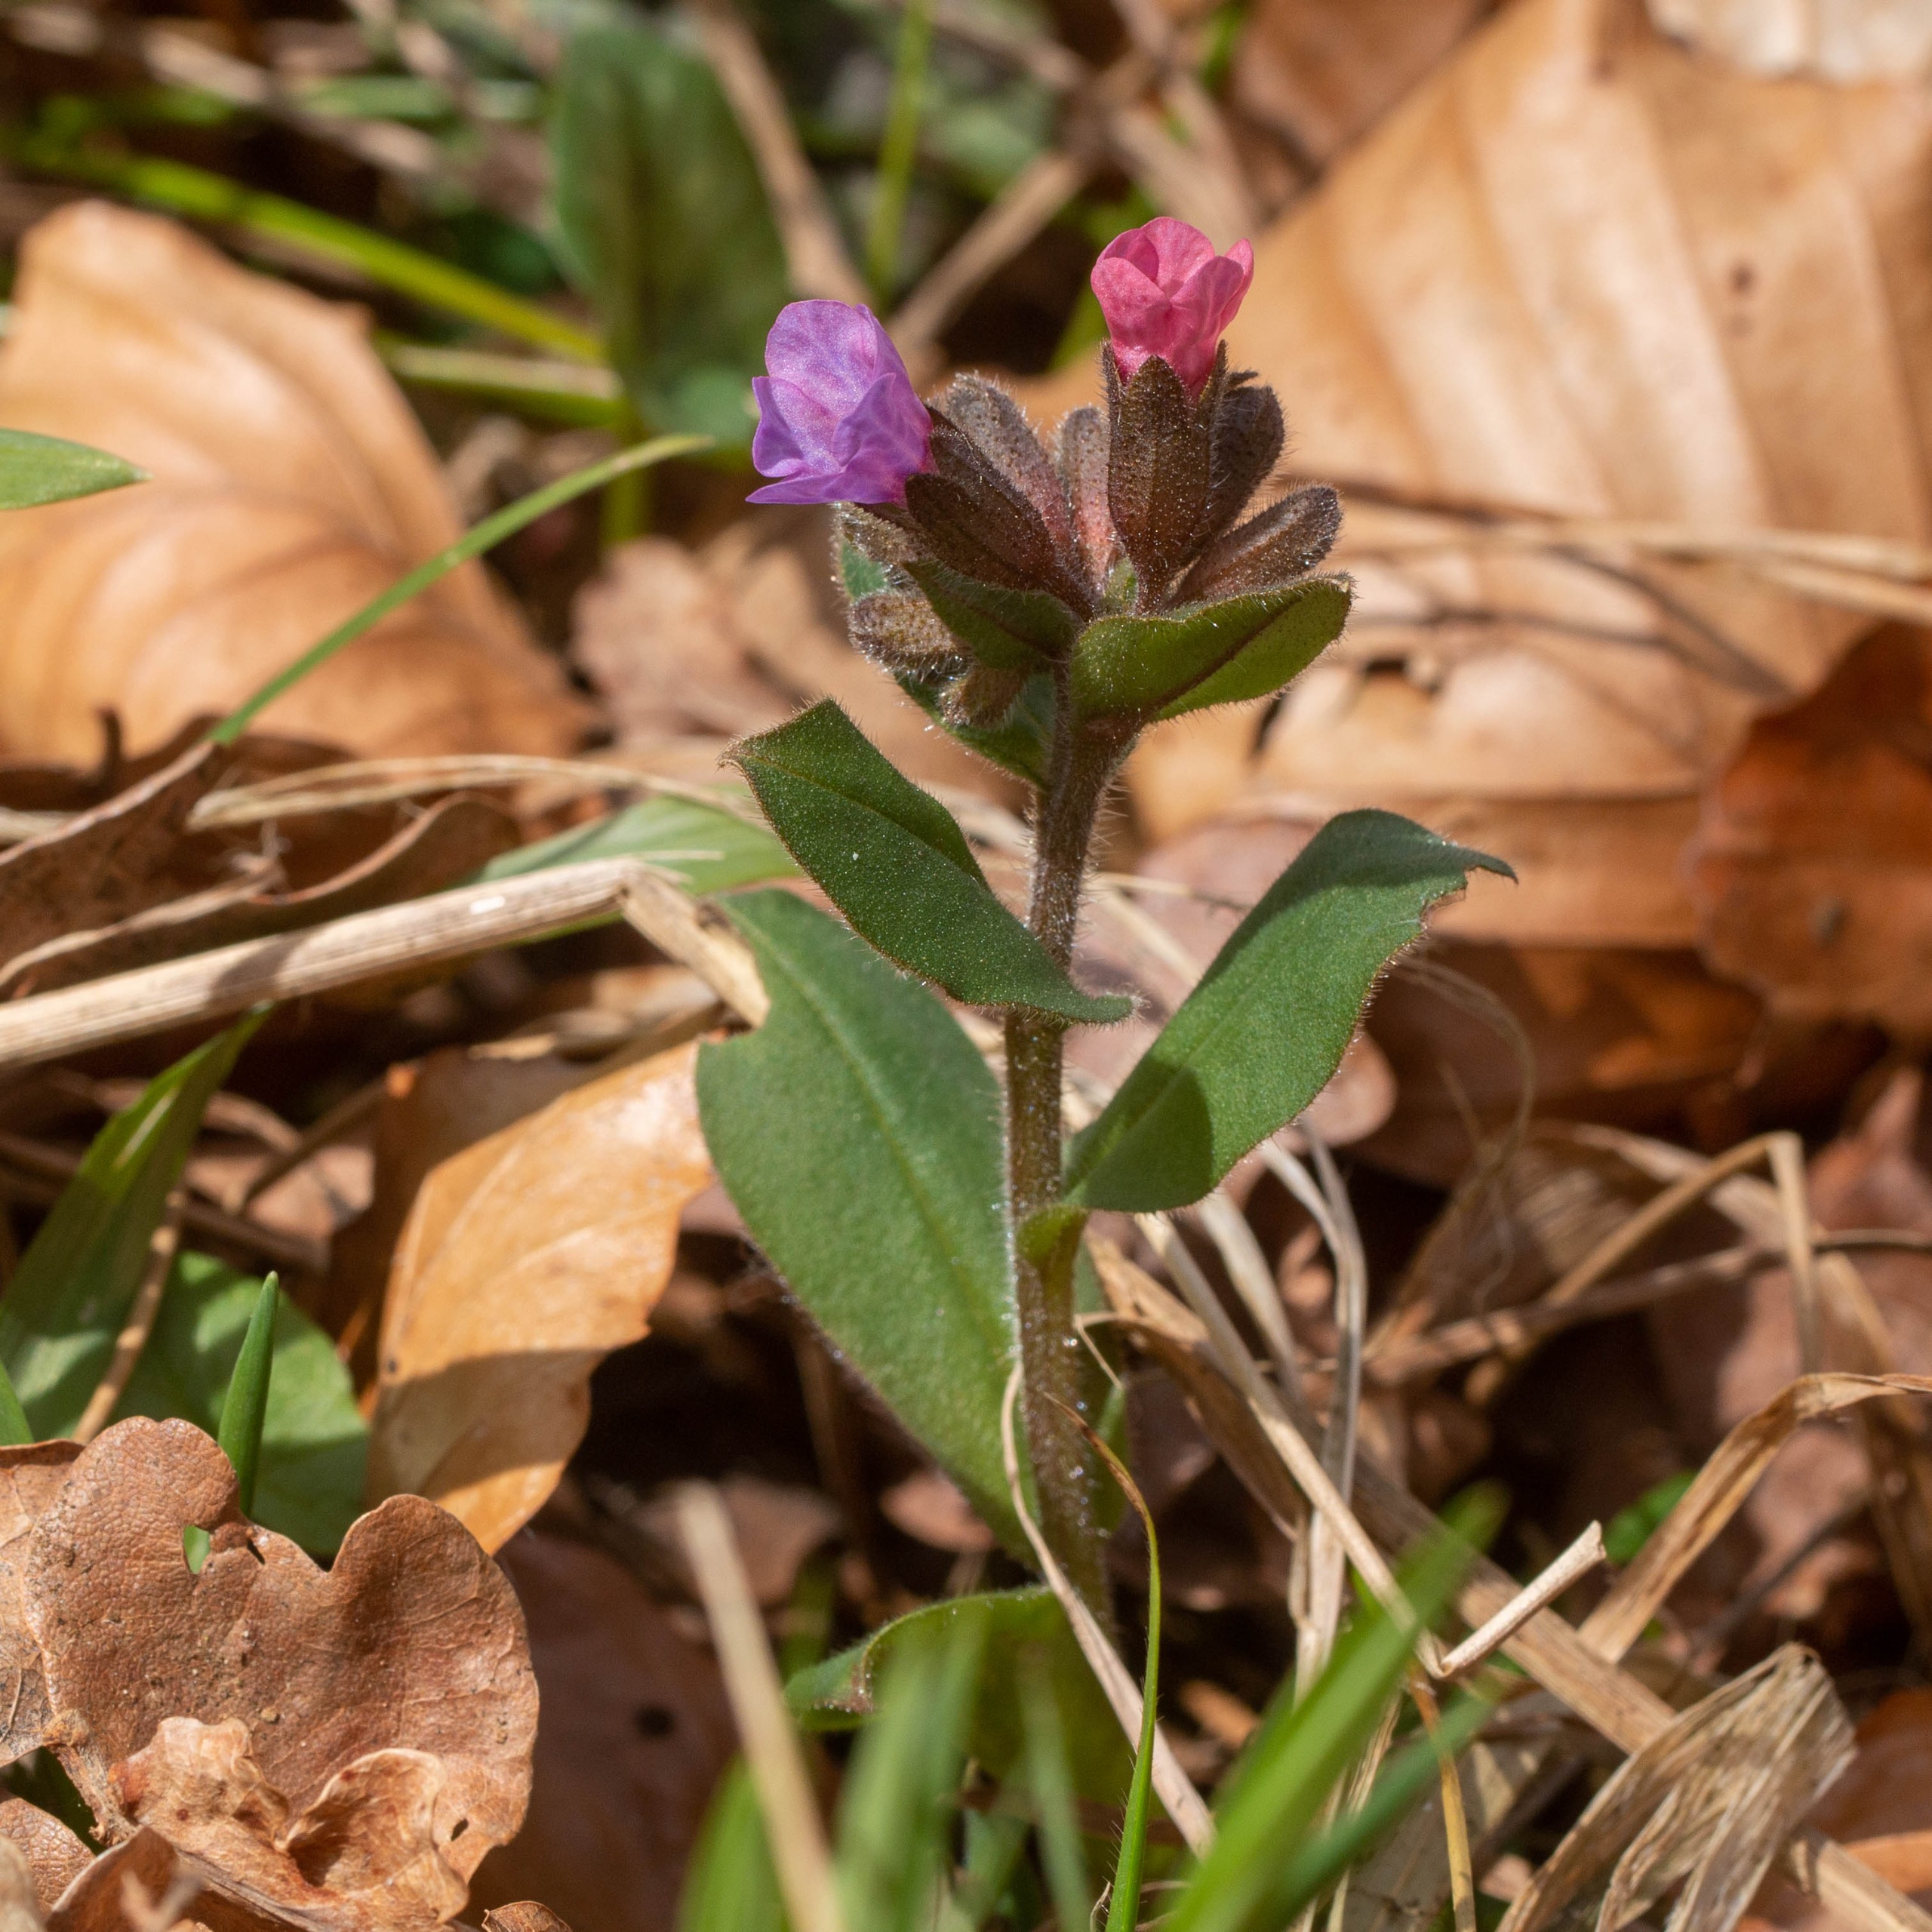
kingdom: Plantae
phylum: Tracheophyta
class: Magnoliopsida
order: Boraginales
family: Boraginaceae
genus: Pulmonaria
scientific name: Pulmonaria obscura
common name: Almindelig lungeurt
